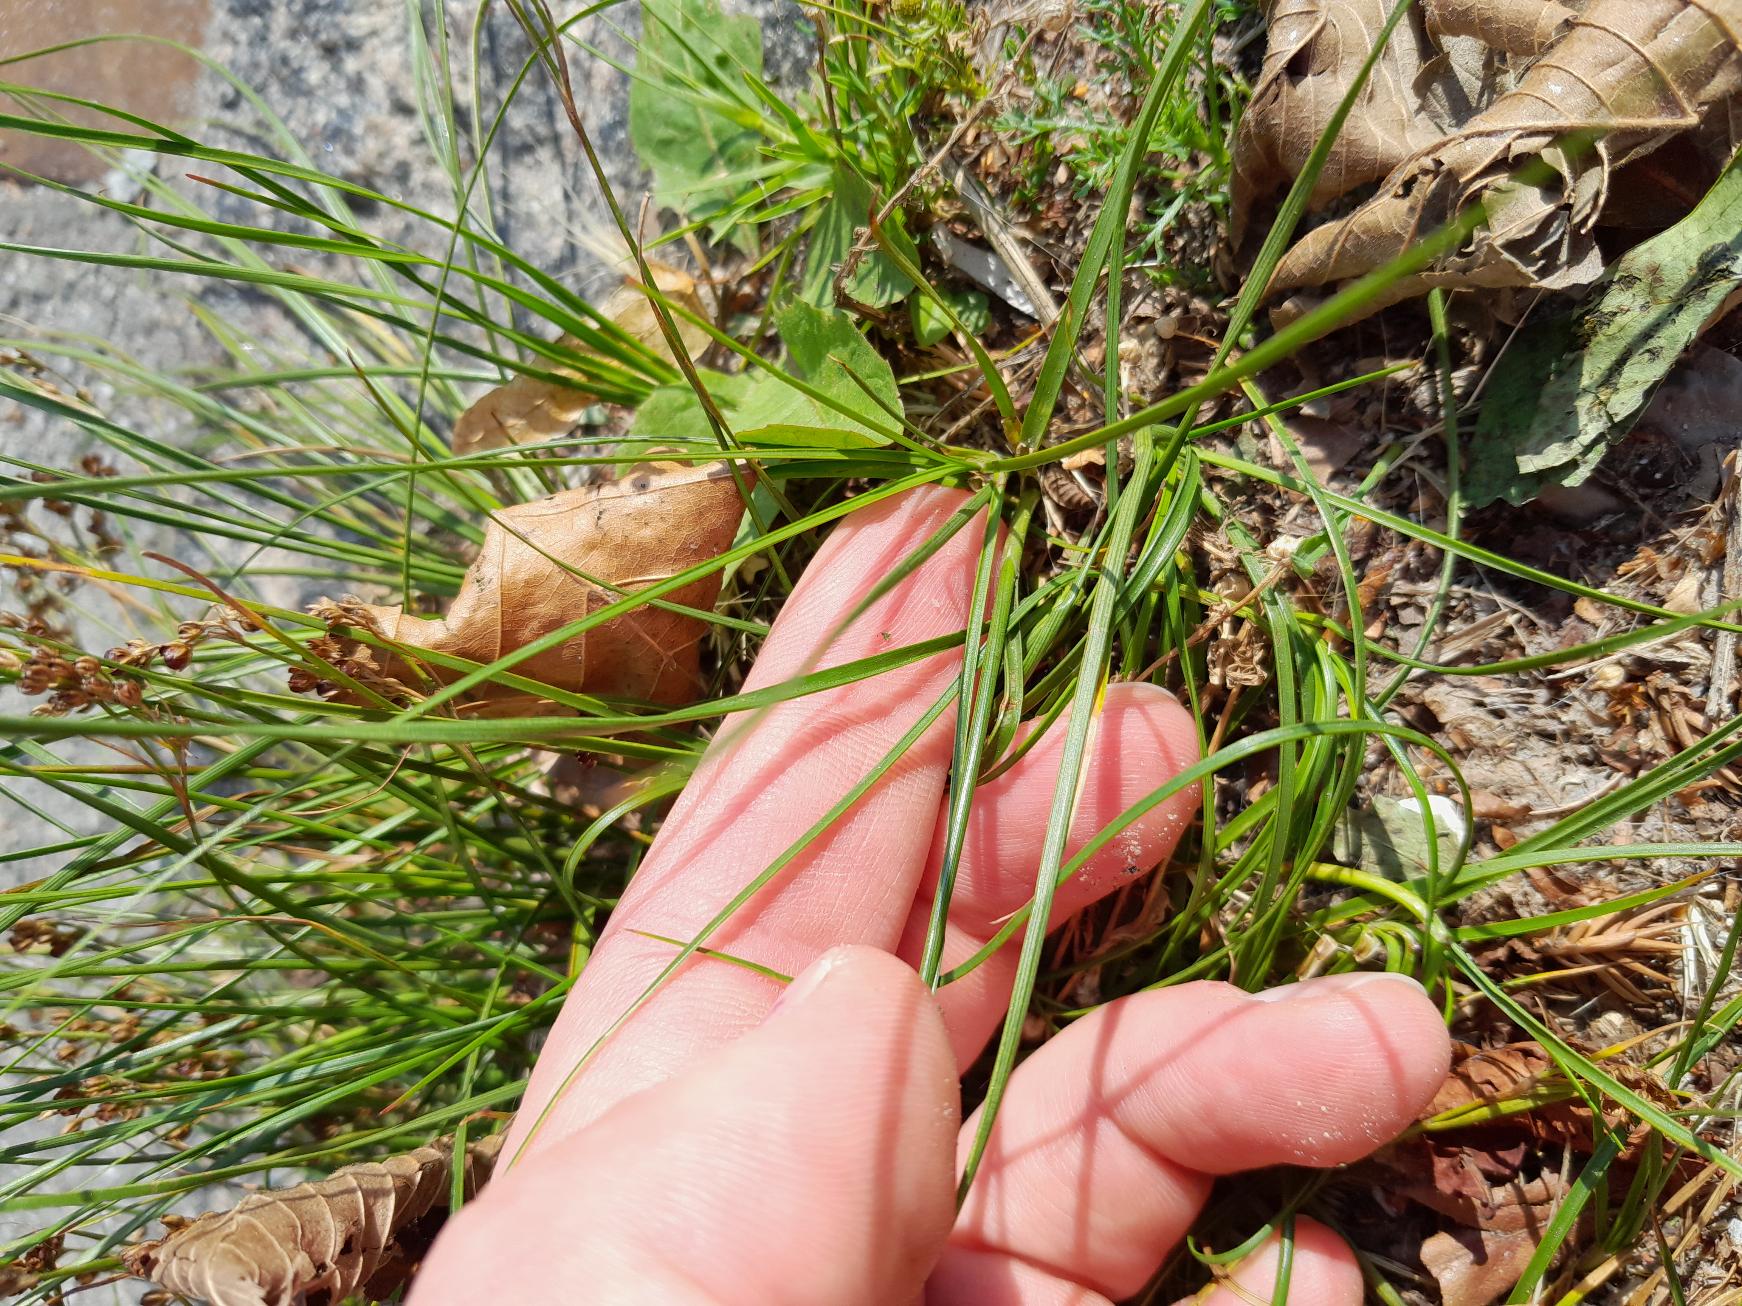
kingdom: Plantae
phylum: Tracheophyta
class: Liliopsida
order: Poales
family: Juncaceae
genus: Juncus
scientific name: Juncus compressus
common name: Fladstrået siv
